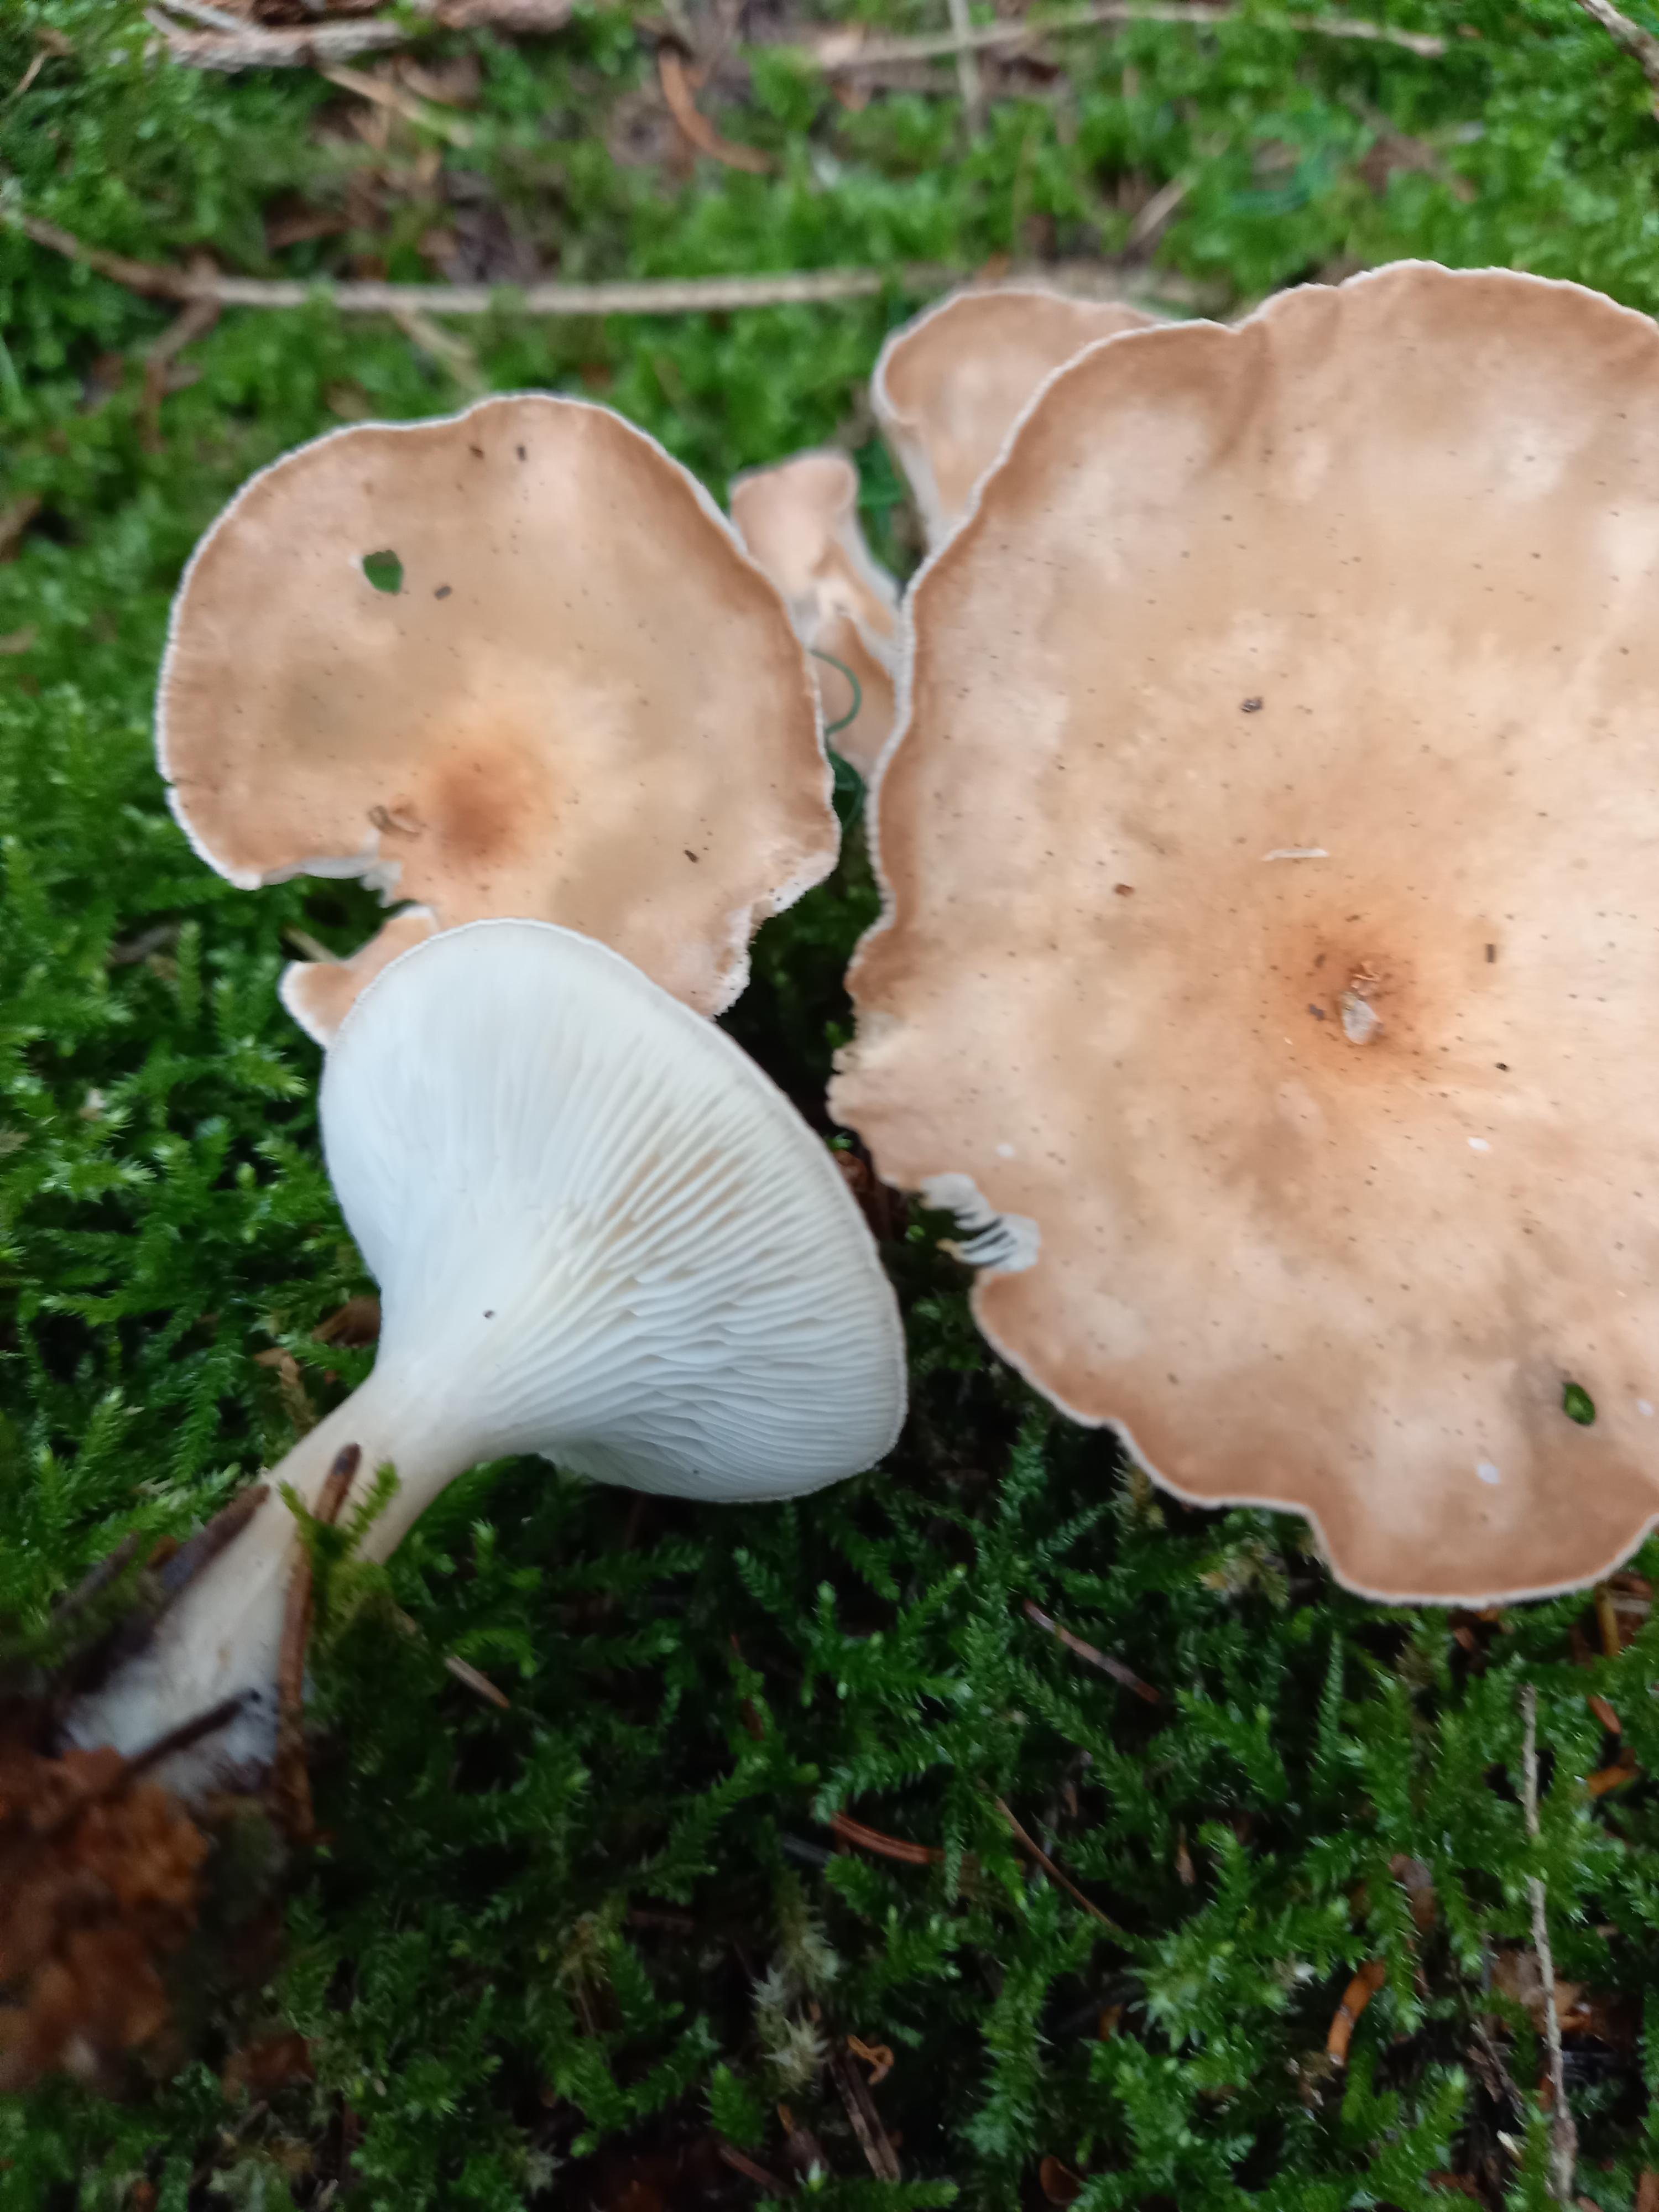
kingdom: Fungi
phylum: Basidiomycota
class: Agaricomycetes
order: Agaricales
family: Tricholomataceae
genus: Infundibulicybe
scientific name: Infundibulicybe gibba
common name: almindelig tragthat
